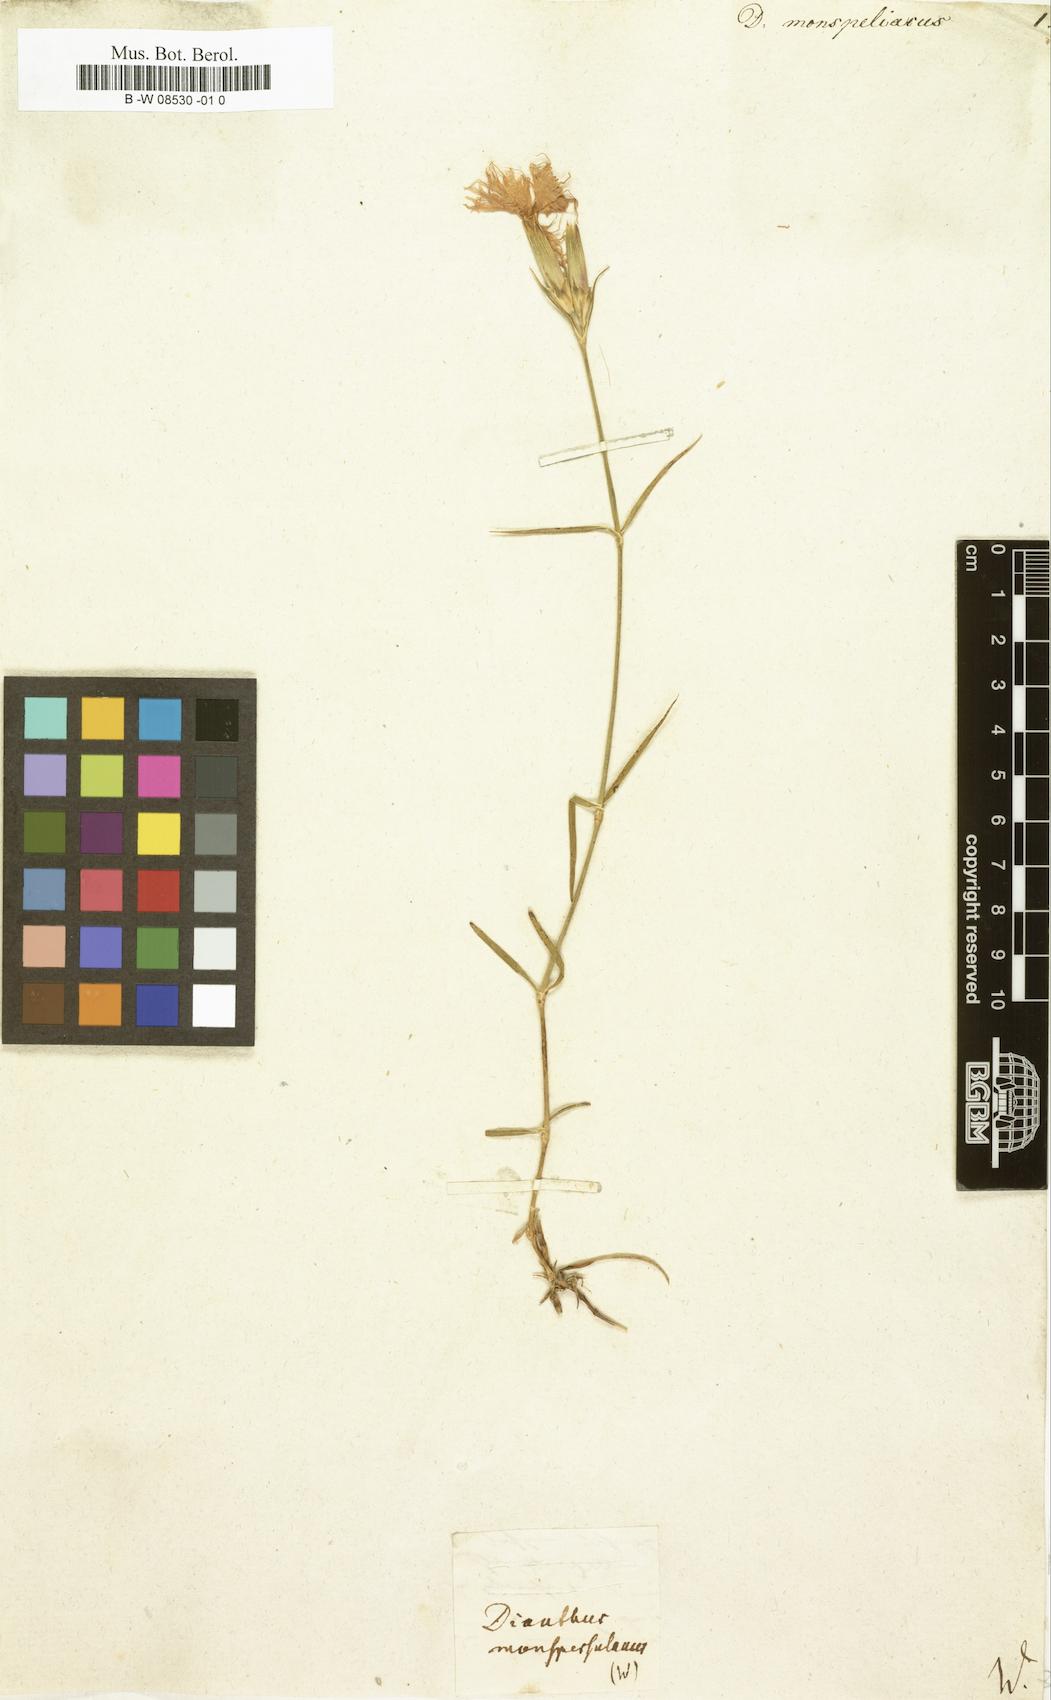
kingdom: Plantae
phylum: Tracheophyta
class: Magnoliopsida
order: Caryophyllales
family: Caryophyllaceae
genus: Dianthus
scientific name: Dianthus hyssopifolius
